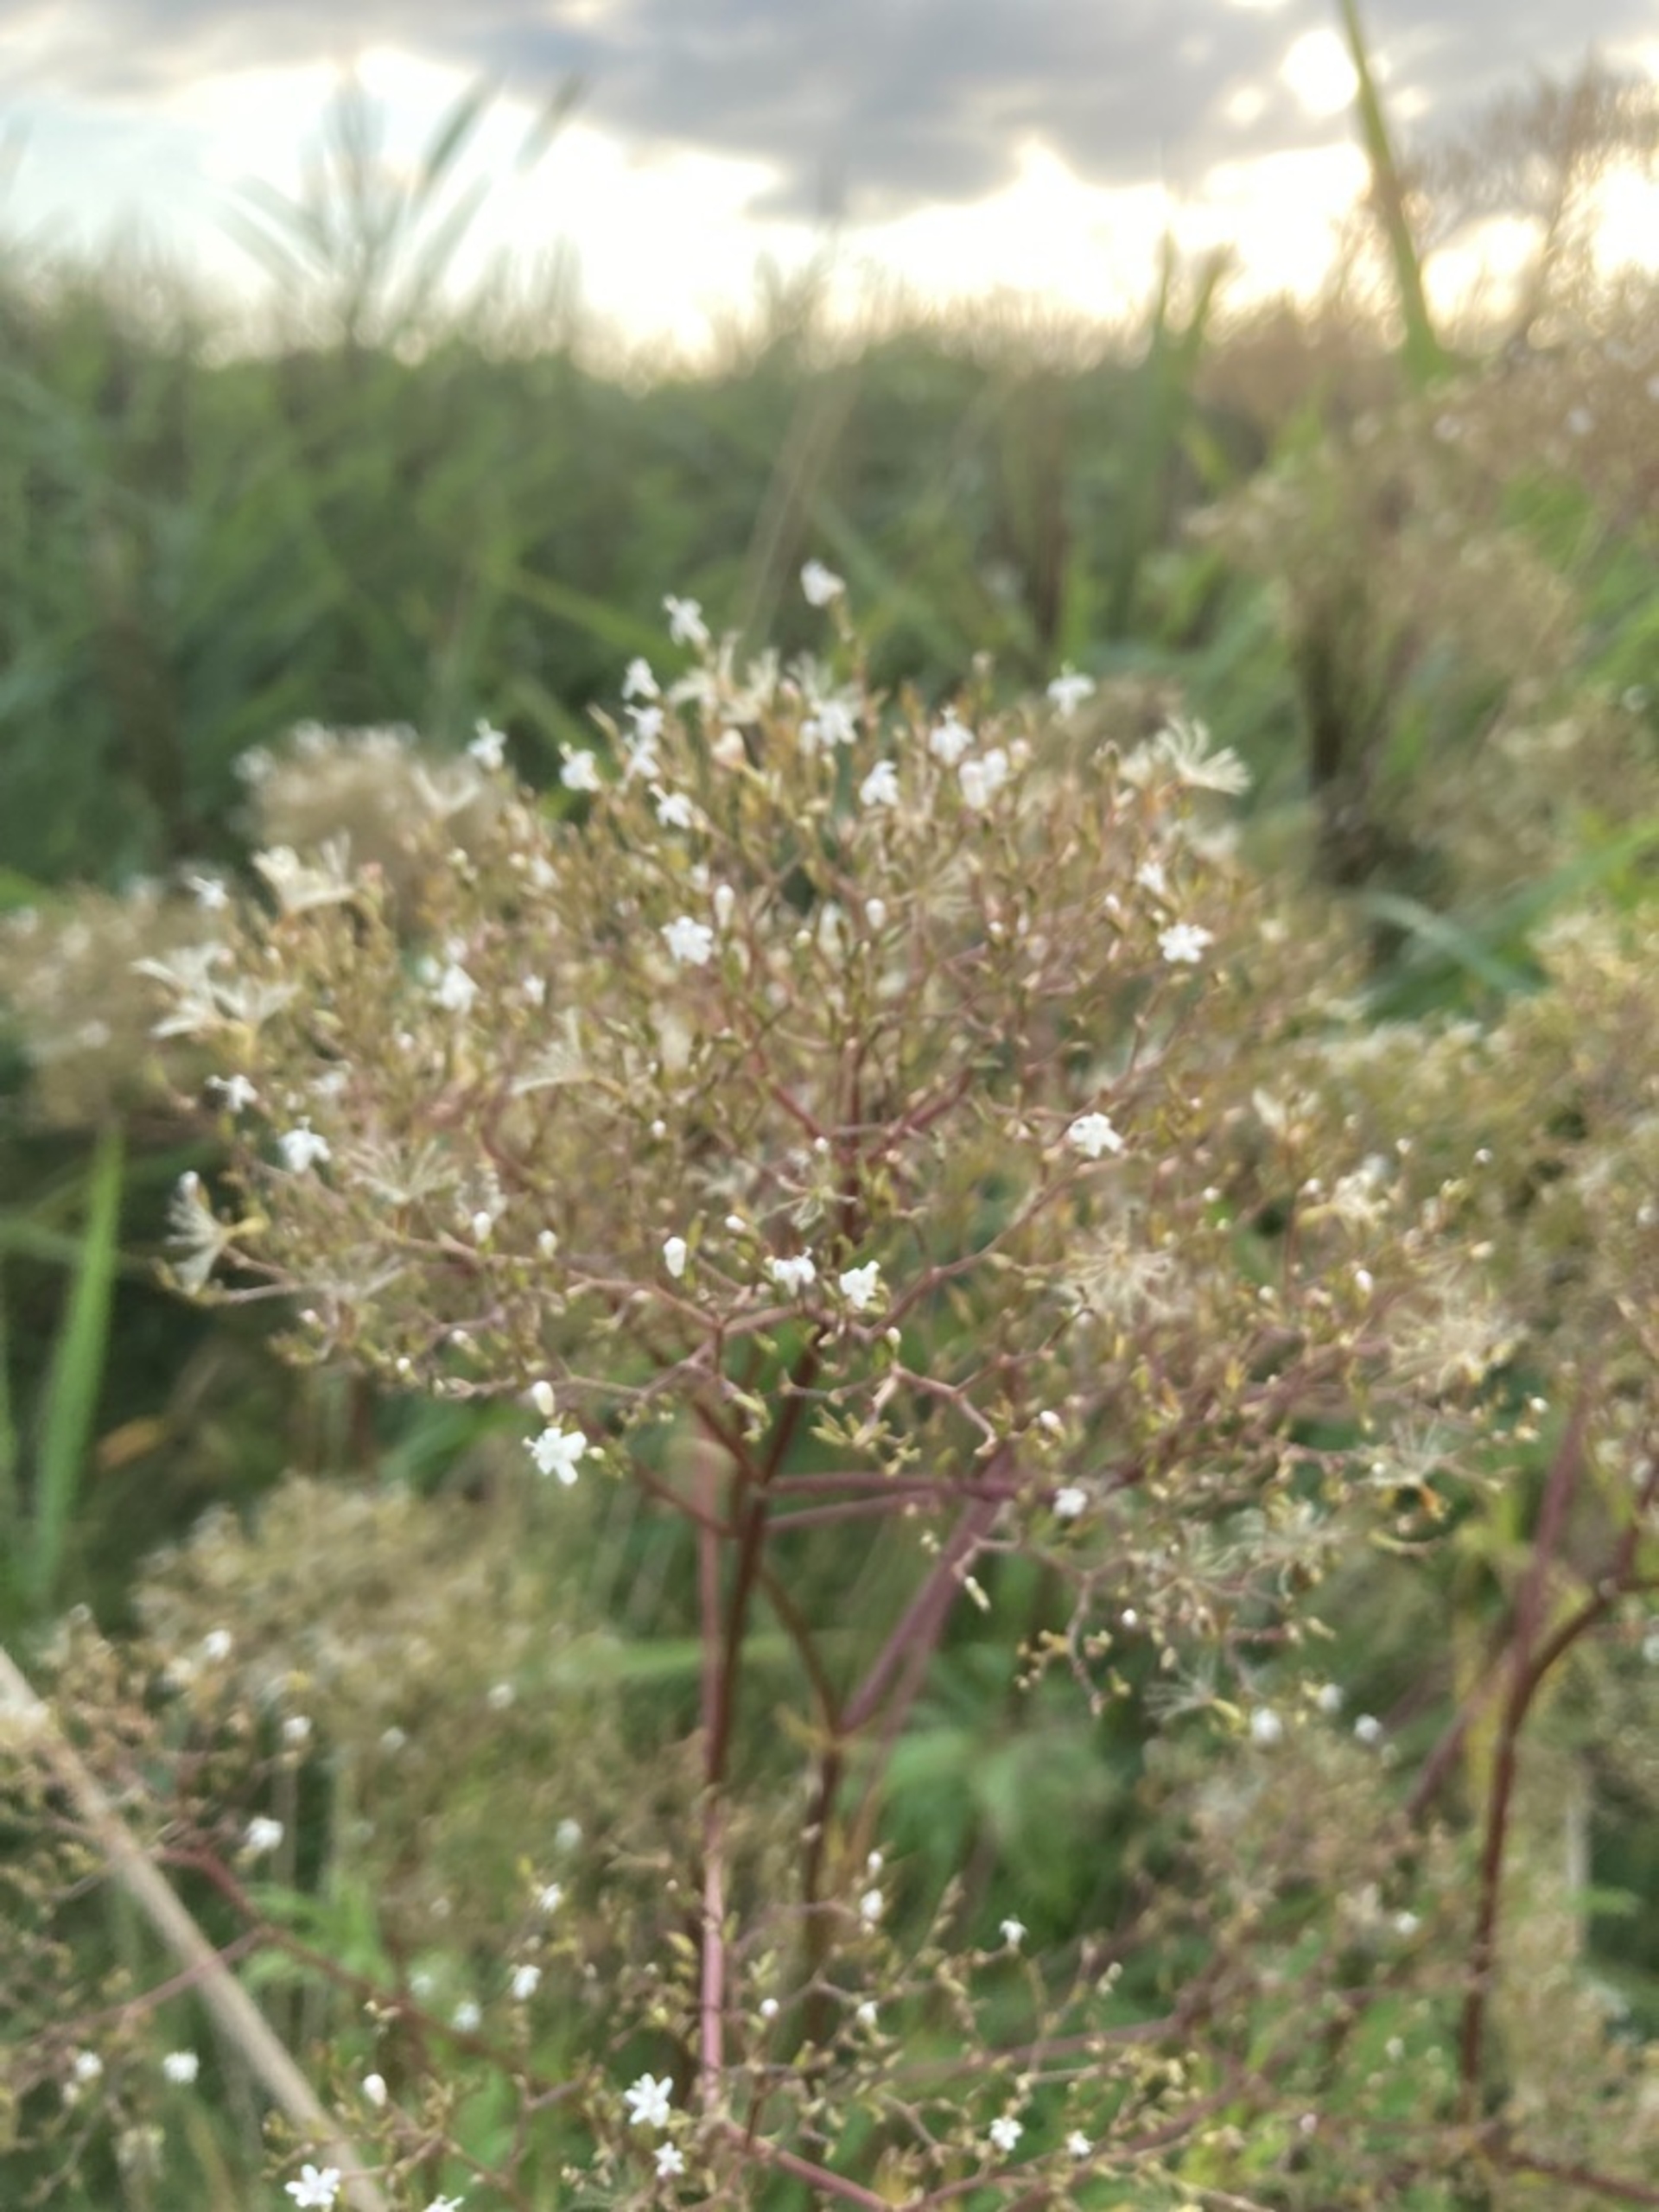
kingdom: Plantae
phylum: Tracheophyta
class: Magnoliopsida
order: Dipsacales
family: Caprifoliaceae
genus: Valeriana
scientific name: Valeriana officinalis
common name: Læge-baldrian
